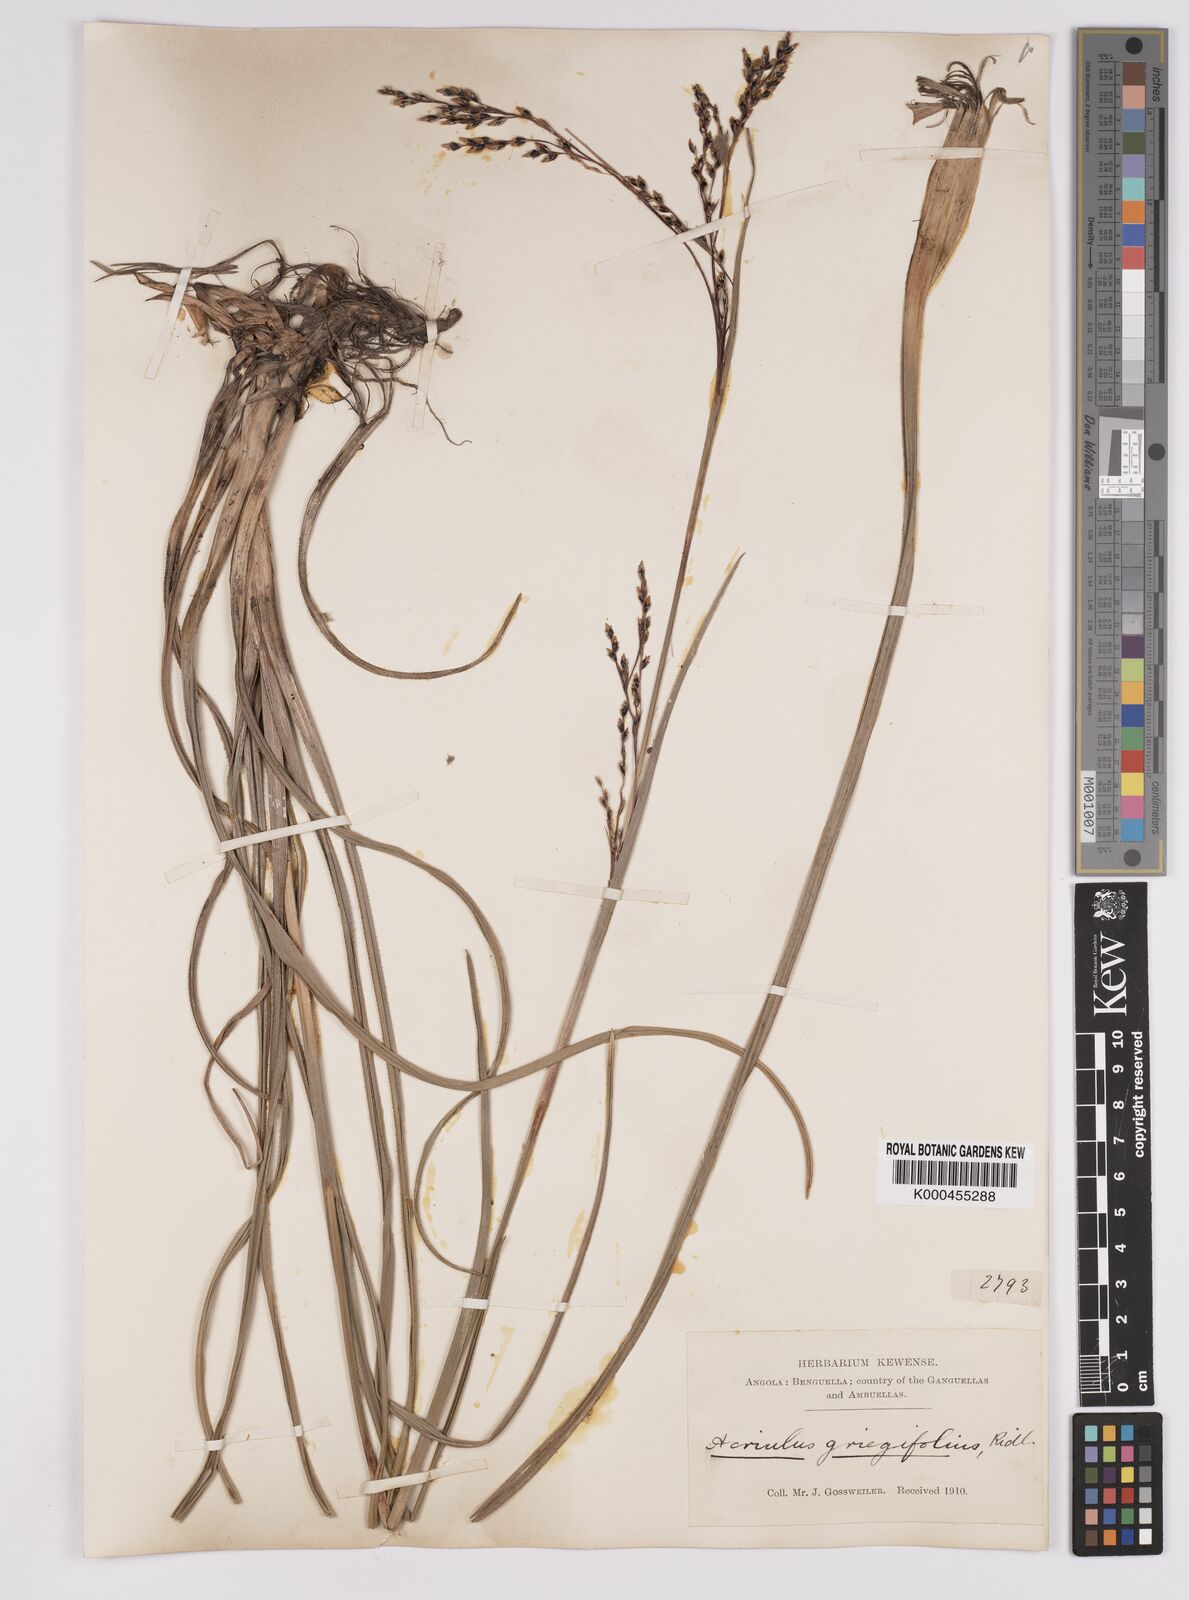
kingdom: Plantae
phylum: Tracheophyta
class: Liliopsida
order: Poales
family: Cyperaceae
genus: Scleria
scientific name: Scleria greigiifolia
